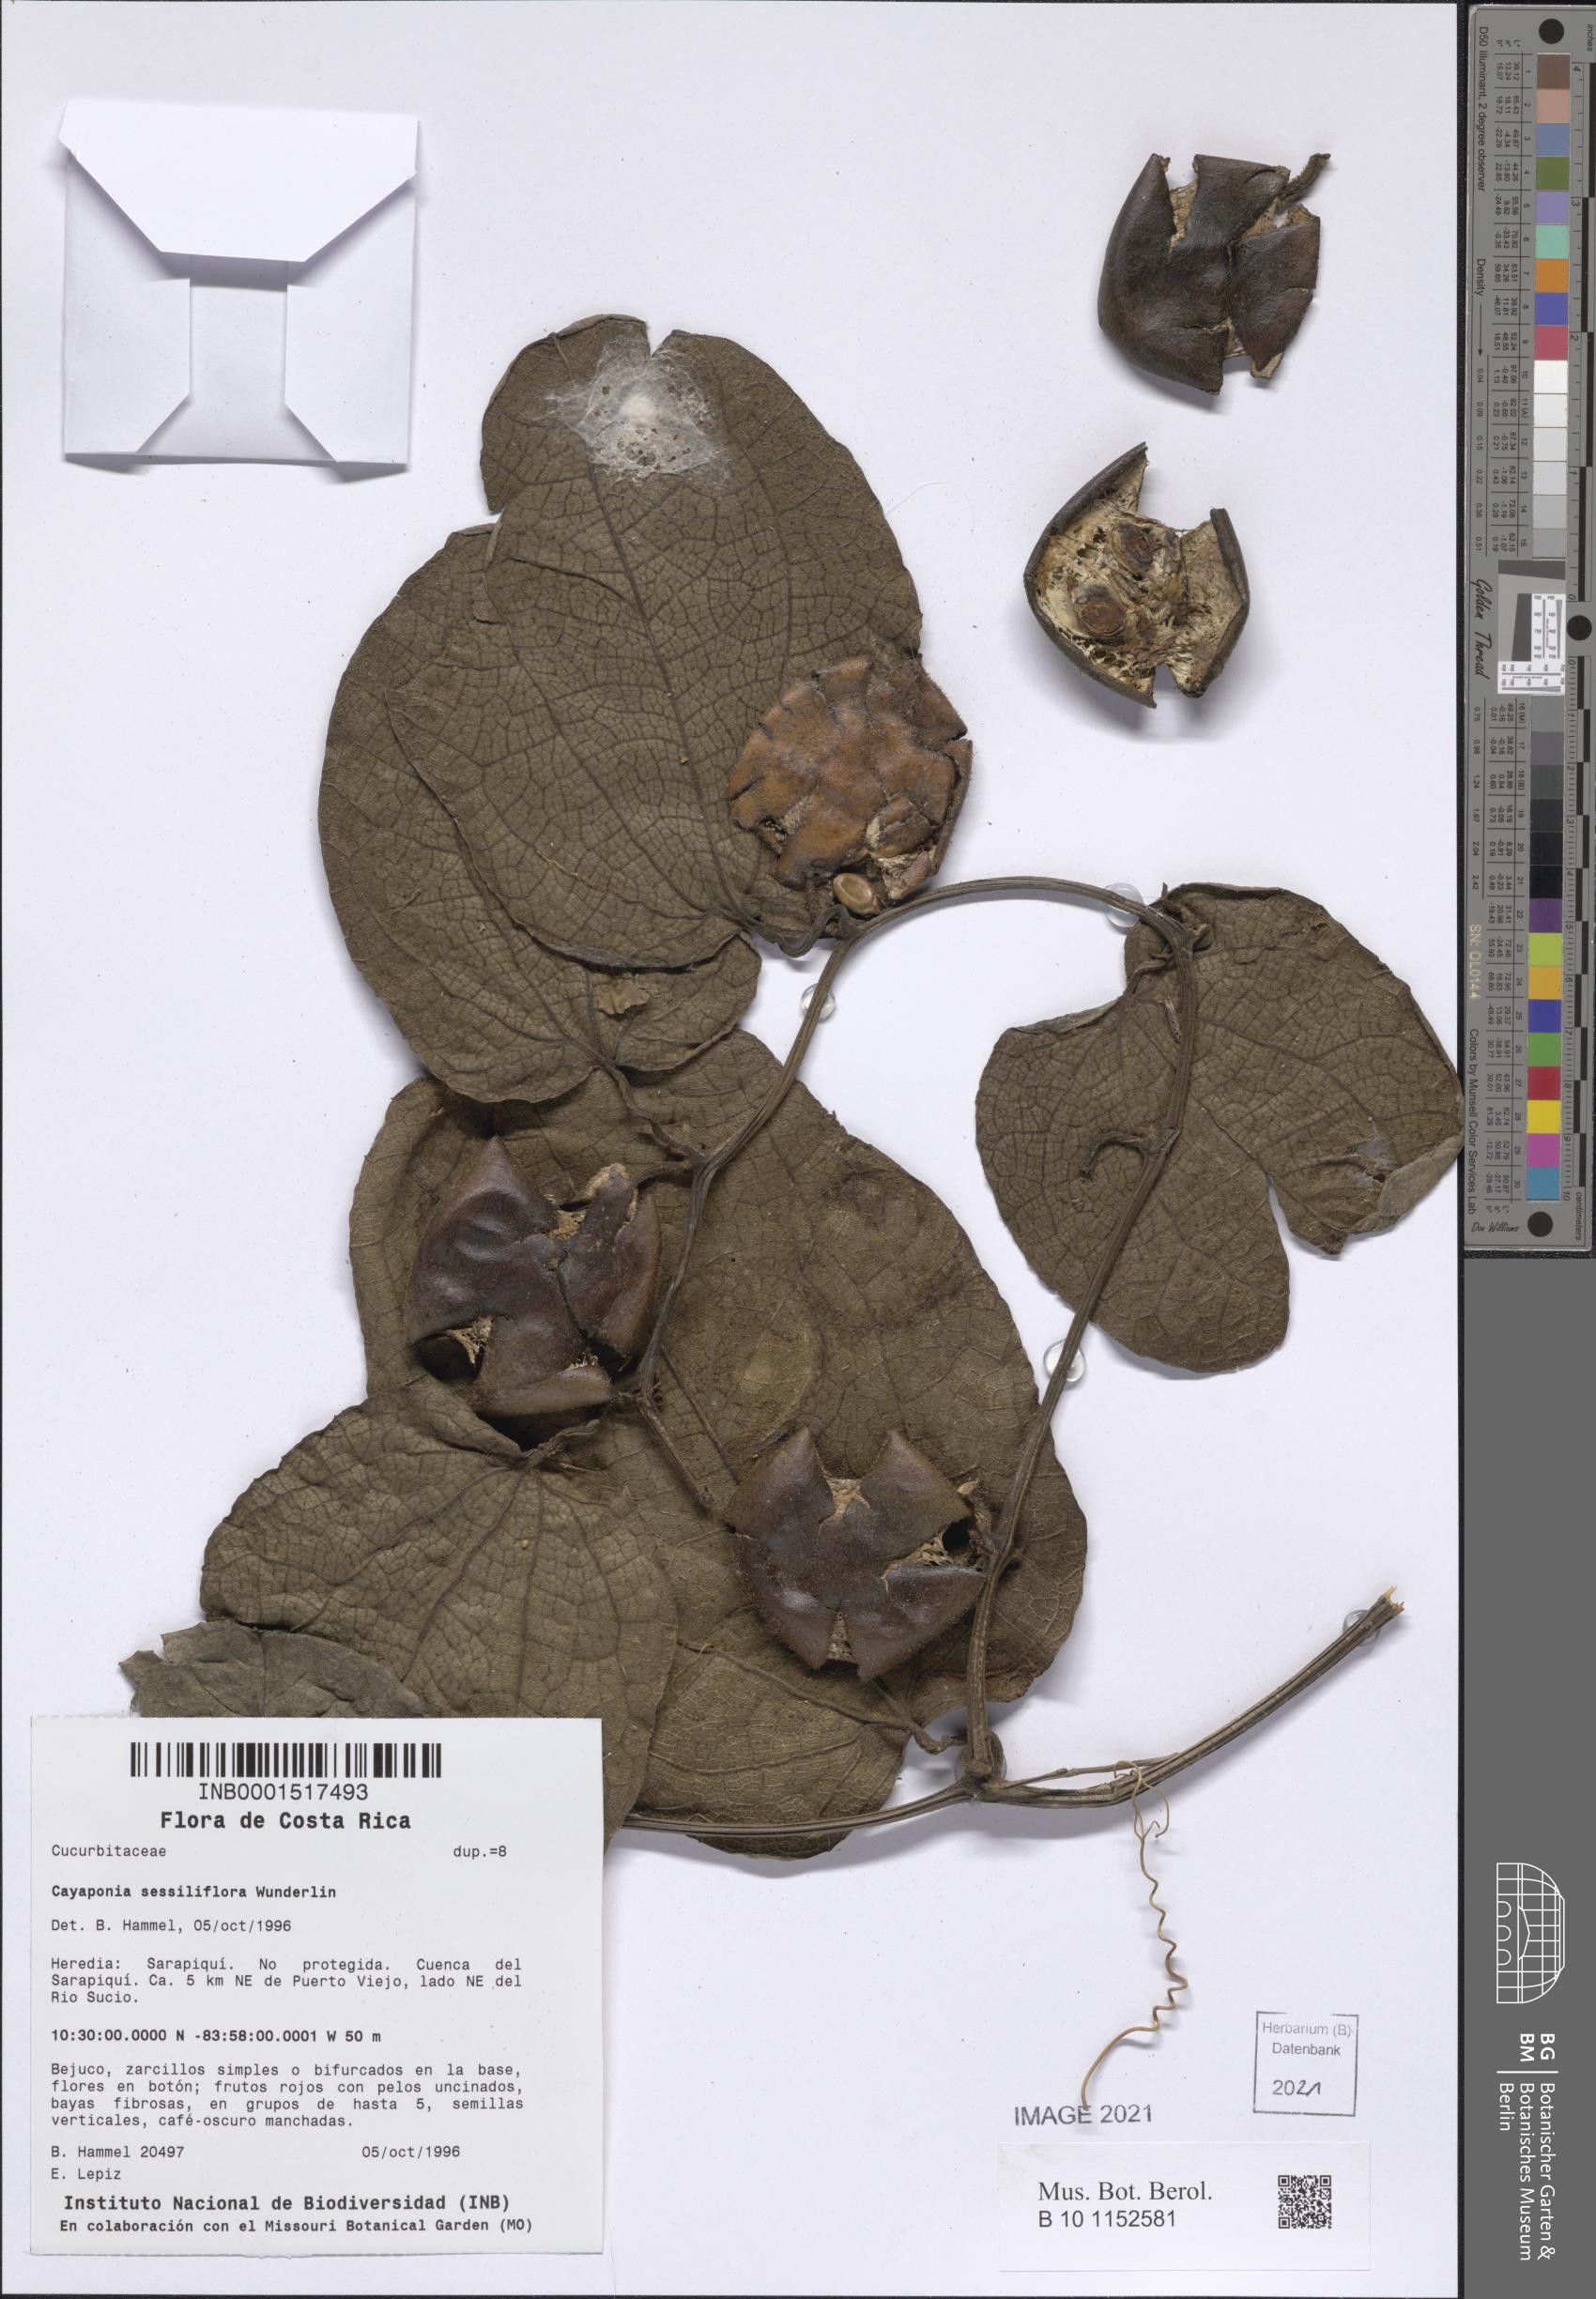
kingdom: Plantae
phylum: Tracheophyta
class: Magnoliopsida
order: Cucurbitales
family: Cucurbitaceae
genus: Cayaponia
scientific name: Cayaponia sessiliflora
